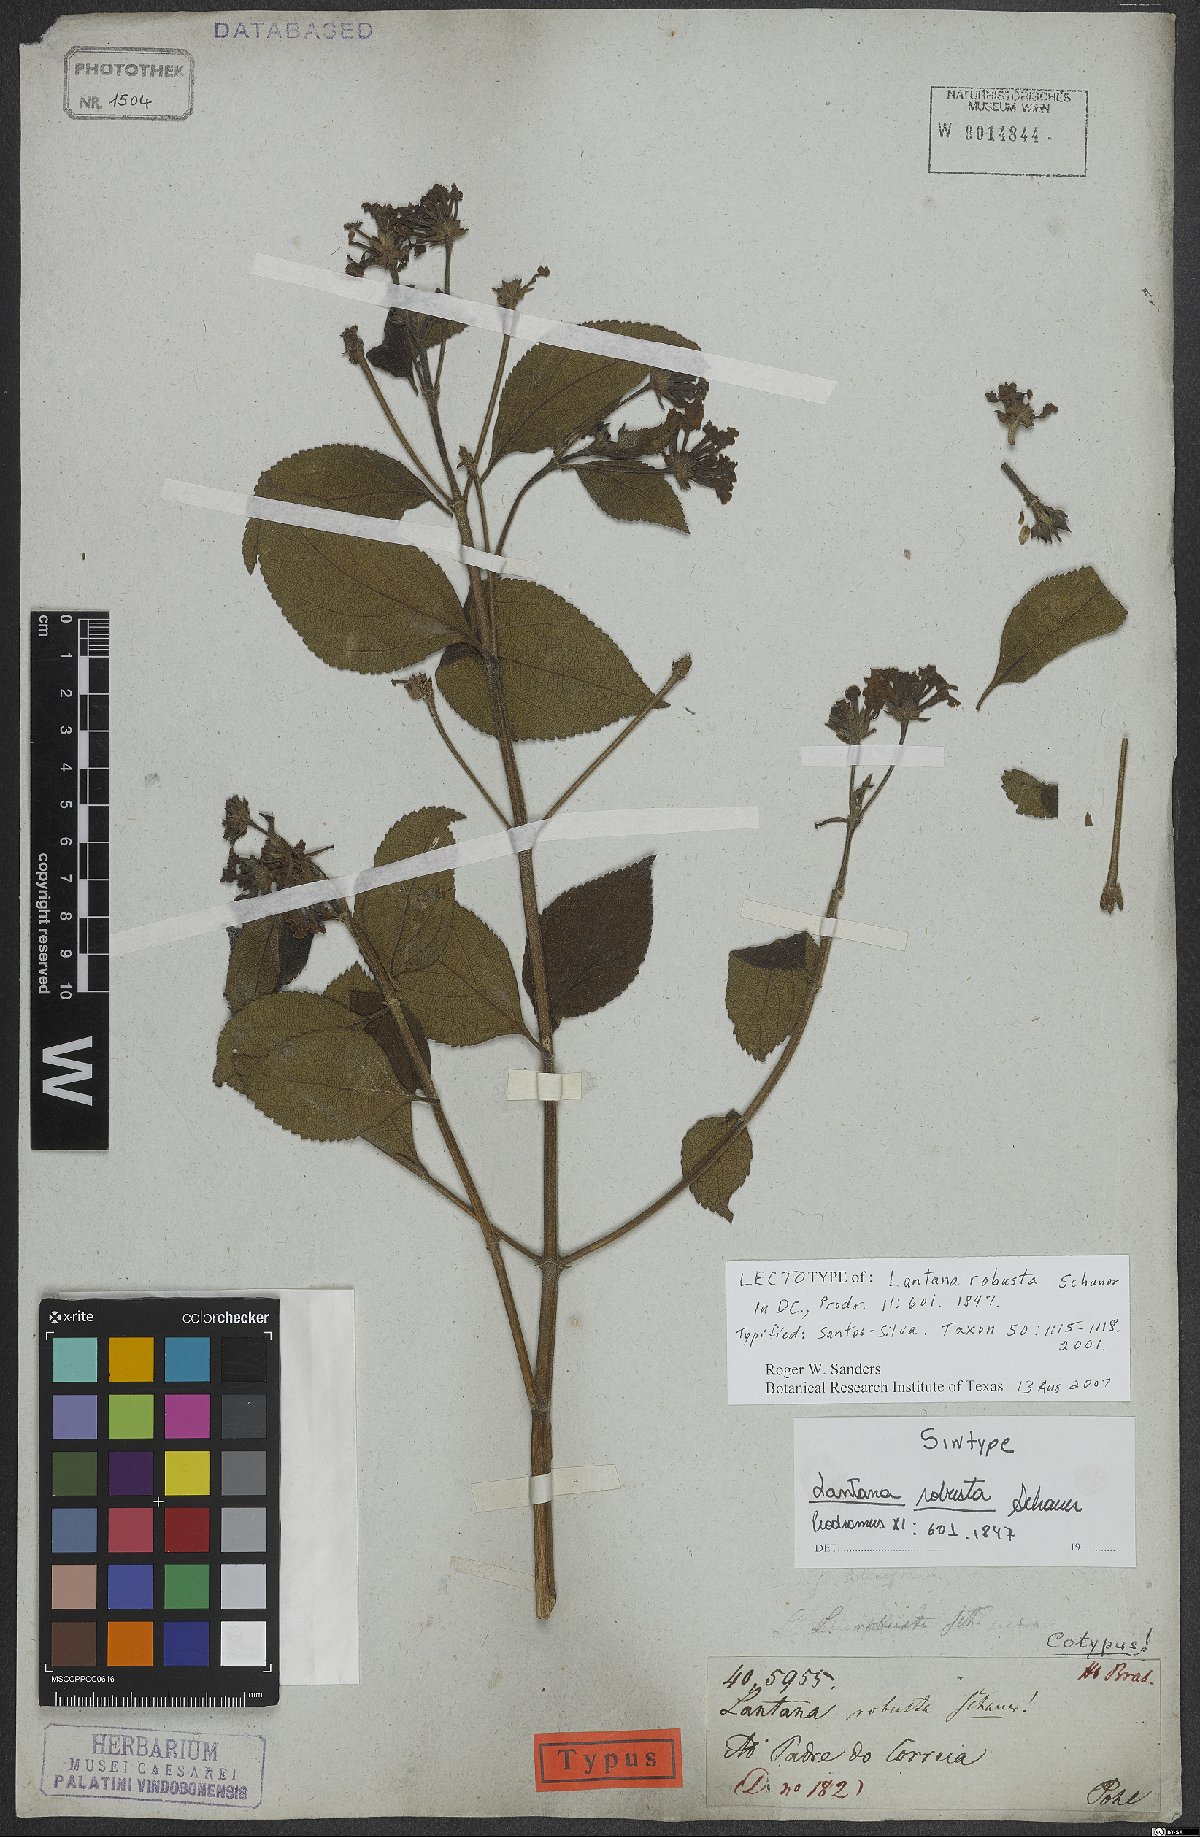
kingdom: Plantae
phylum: Tracheophyta
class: Magnoliopsida
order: Lamiales
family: Verbenaceae
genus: Lantana
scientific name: Lantana robusta
